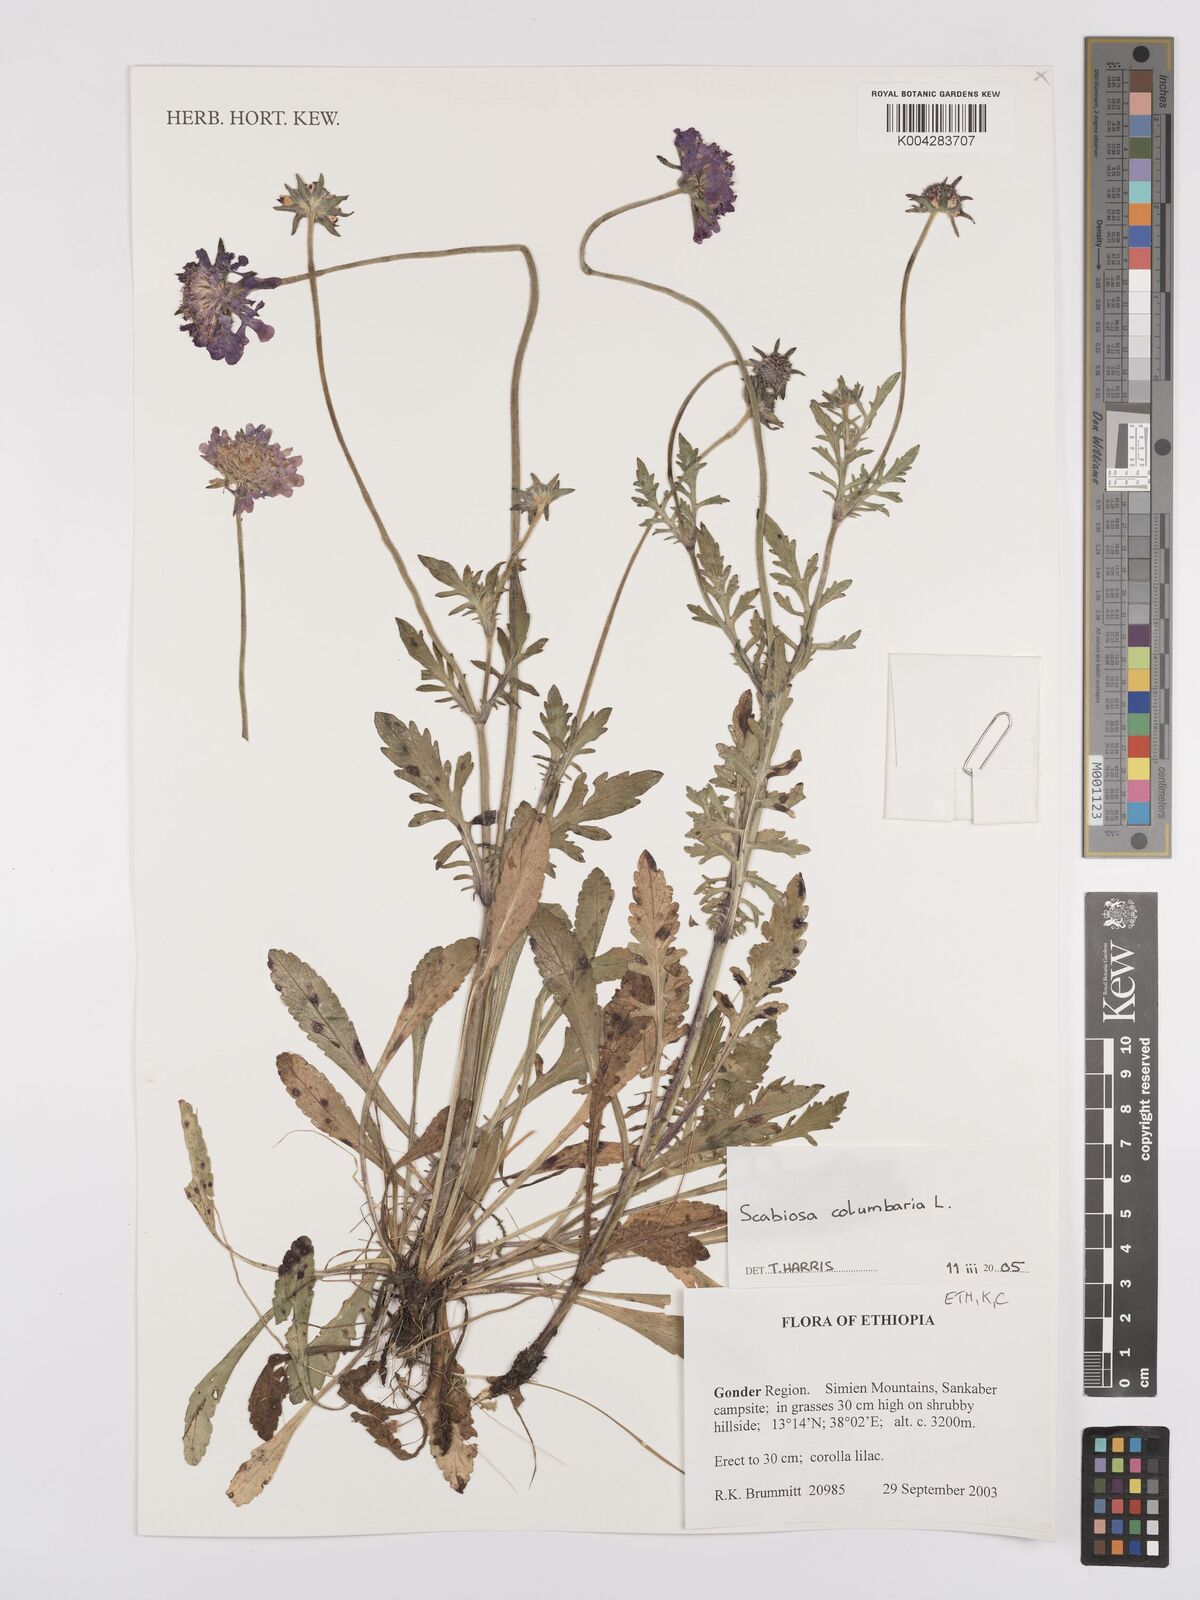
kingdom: Plantae
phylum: Tracheophyta
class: Magnoliopsida
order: Dipsacales
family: Caprifoliaceae
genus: Scabiosa
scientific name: Scabiosa columbaria
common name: Small scabious
